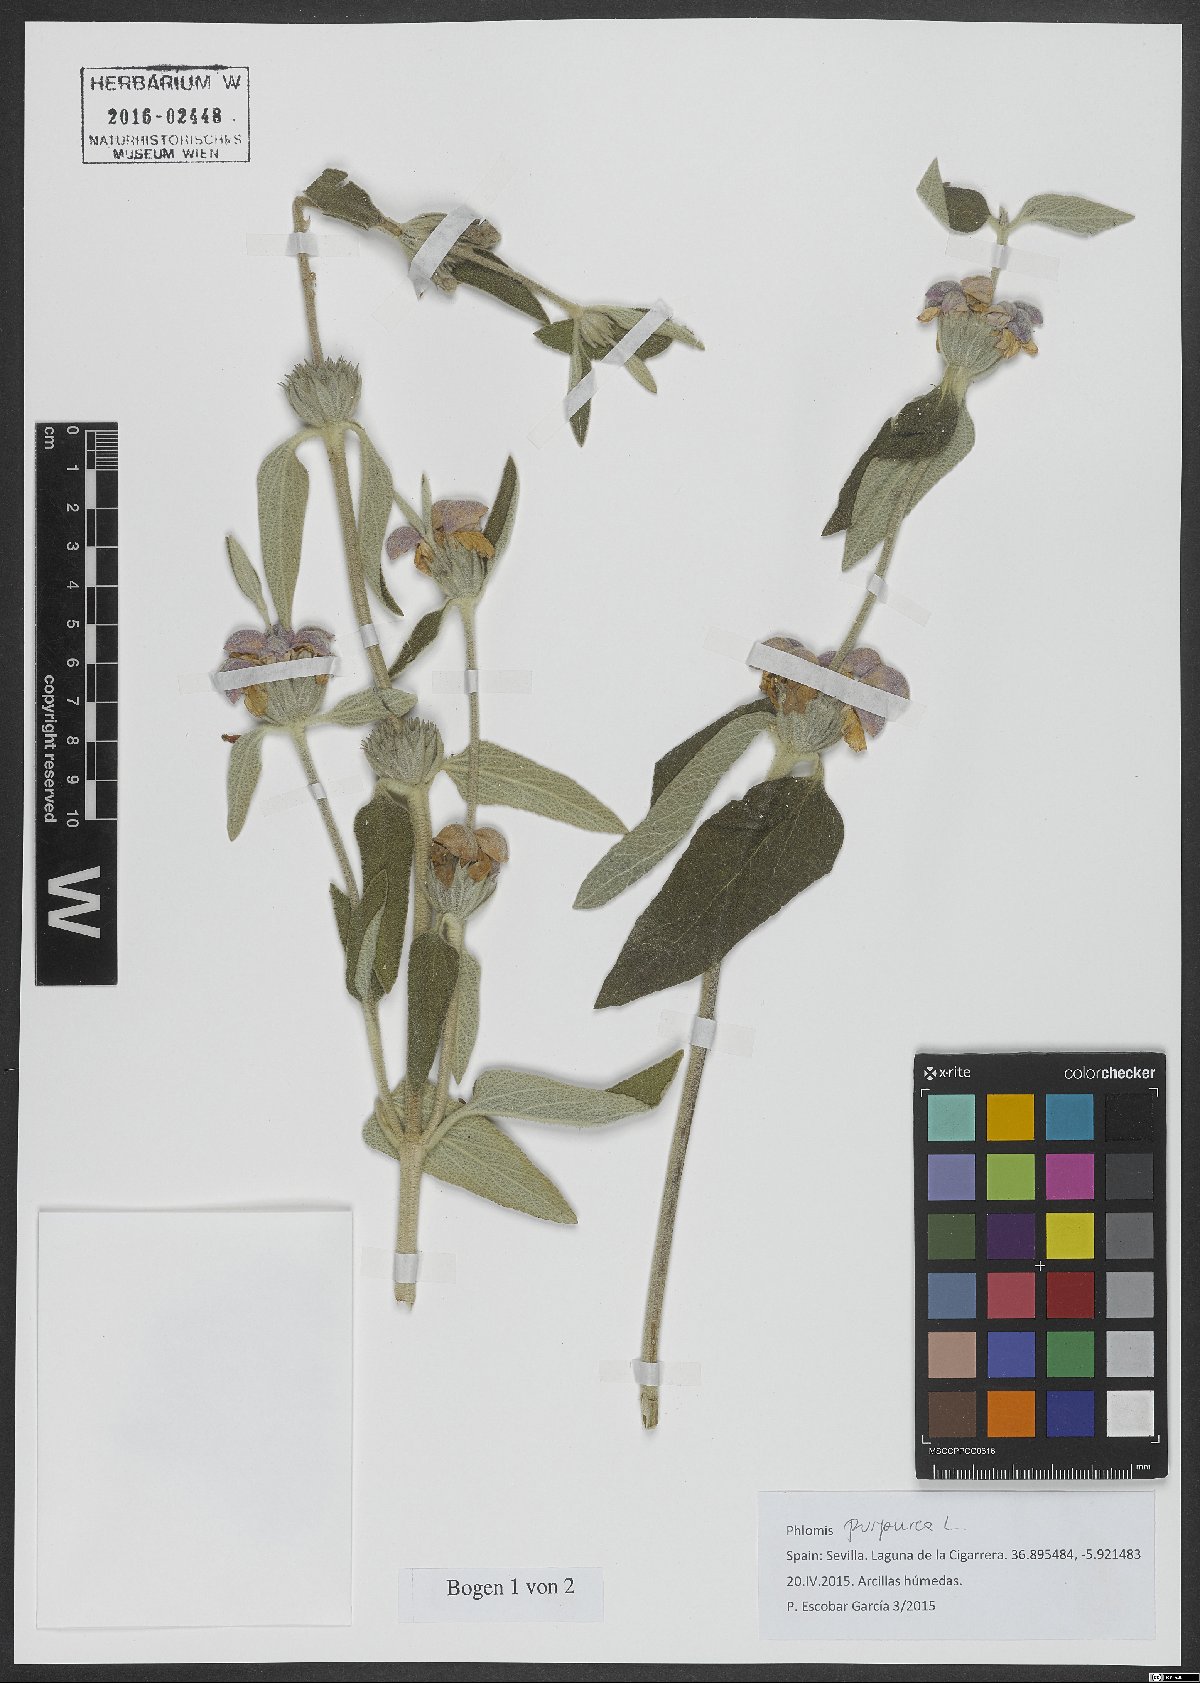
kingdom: Plantae
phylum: Tracheophyta
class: Magnoliopsida
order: Lamiales
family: Lamiaceae
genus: Phlomis
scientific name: Phlomis purpurea
